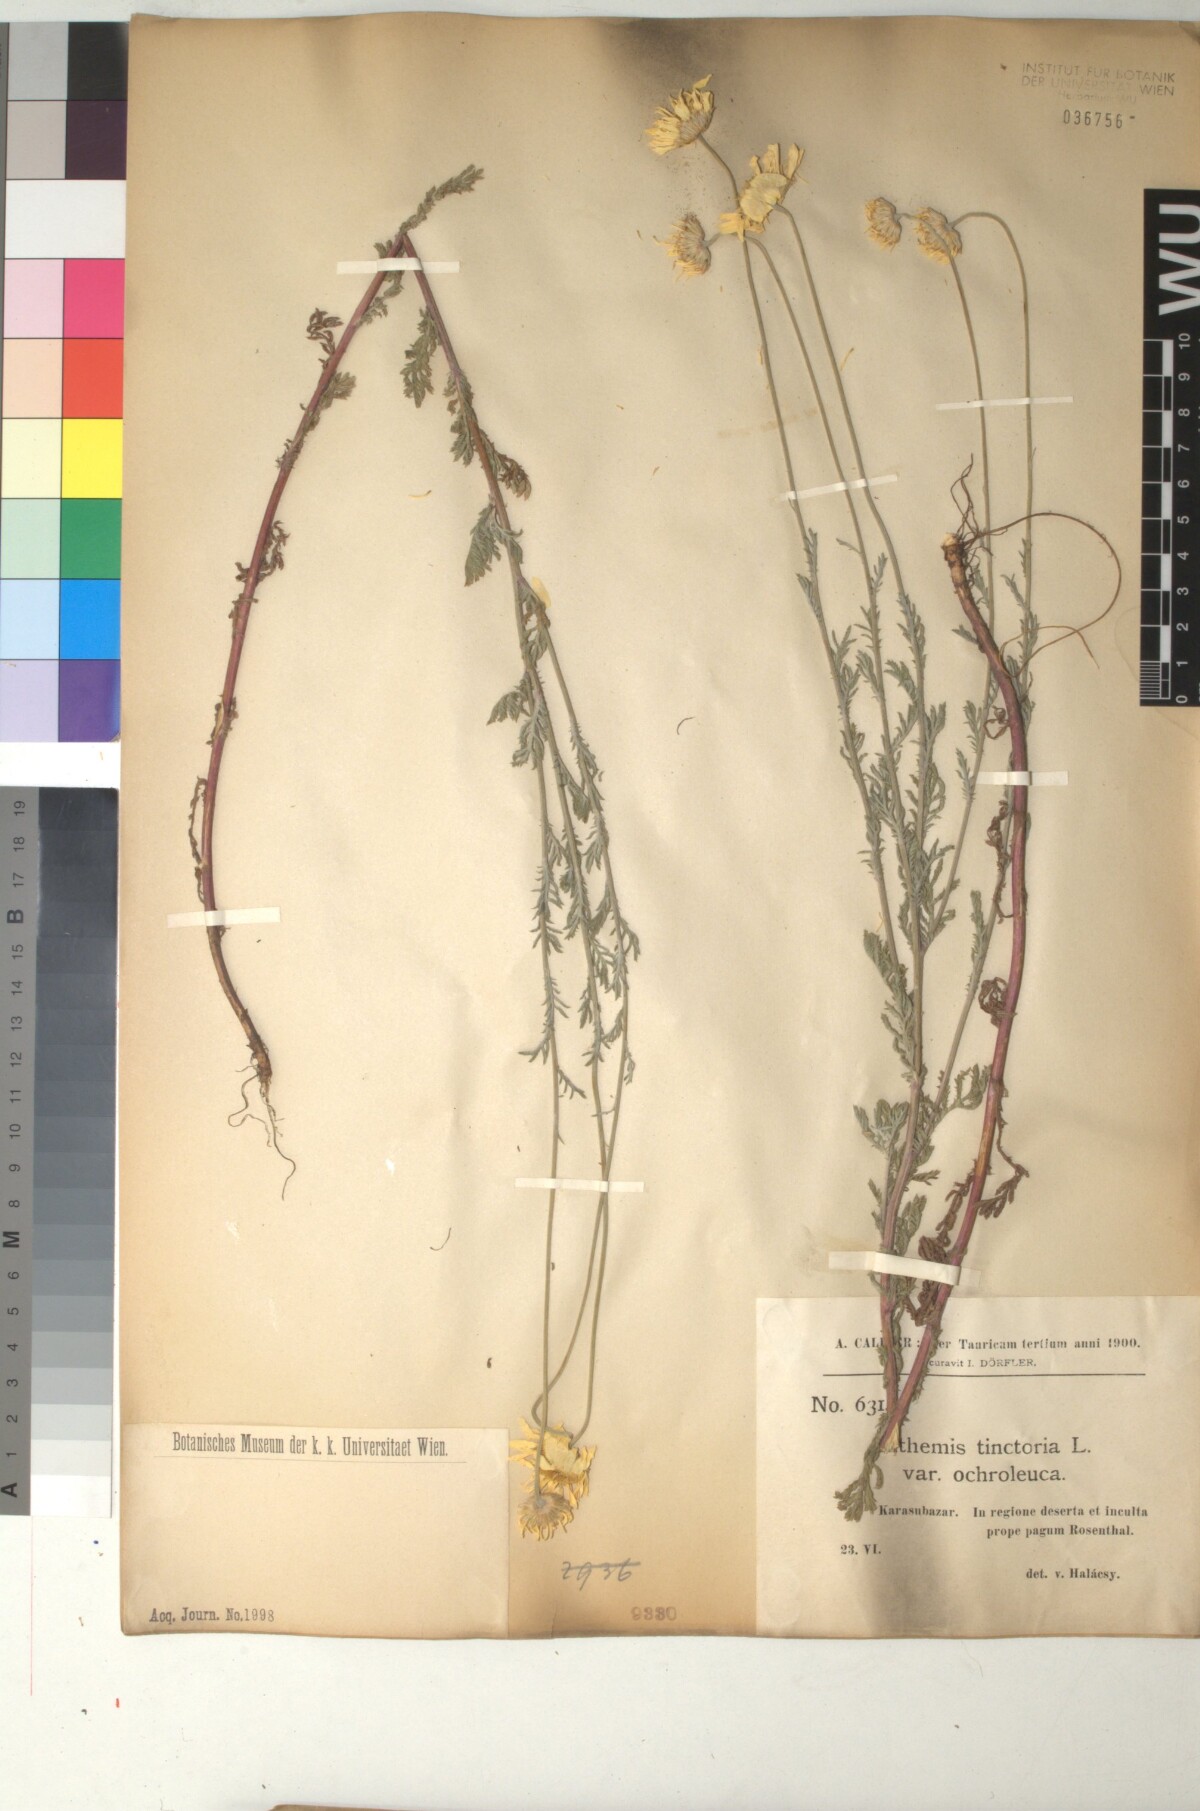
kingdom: Plantae
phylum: Tracheophyta
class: Magnoliopsida
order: Asterales
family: Asteraceae
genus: Cota
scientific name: Cota tinctoria
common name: Golden chamomile
